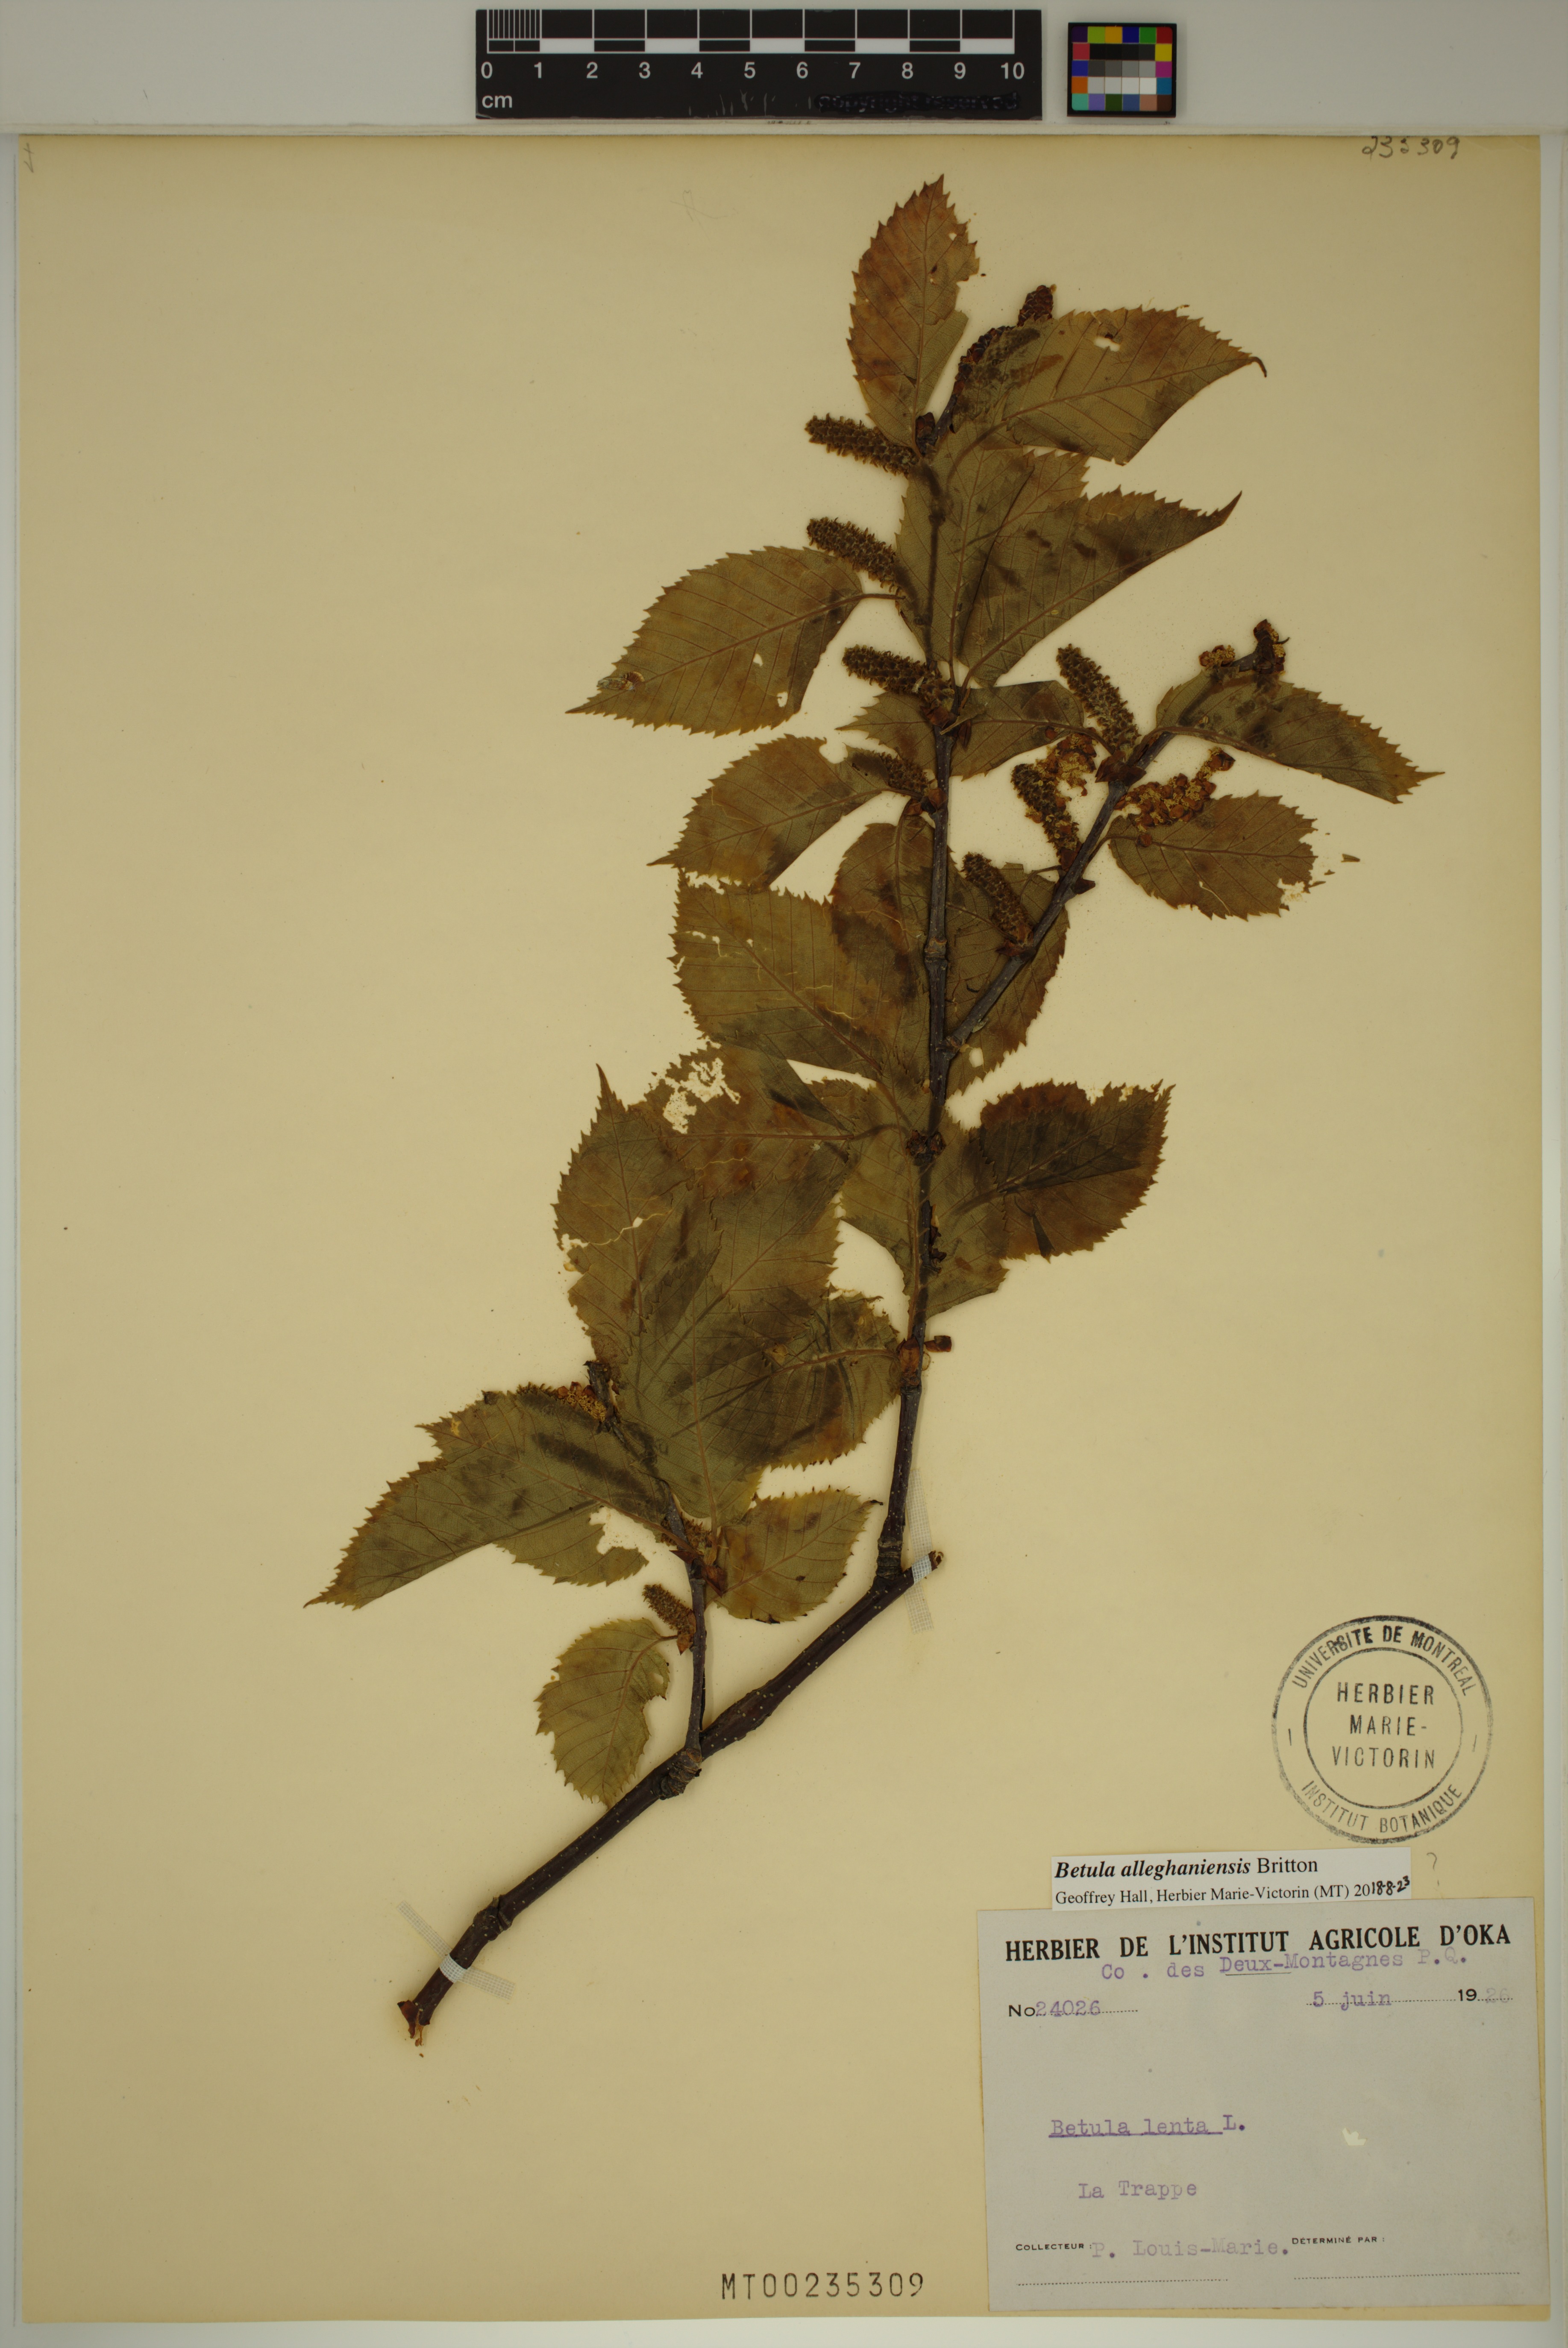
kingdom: Plantae
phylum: Tracheophyta
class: Magnoliopsida
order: Fagales
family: Betulaceae
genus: Betula
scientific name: Betula alleghaniensis
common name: Yellow birch
